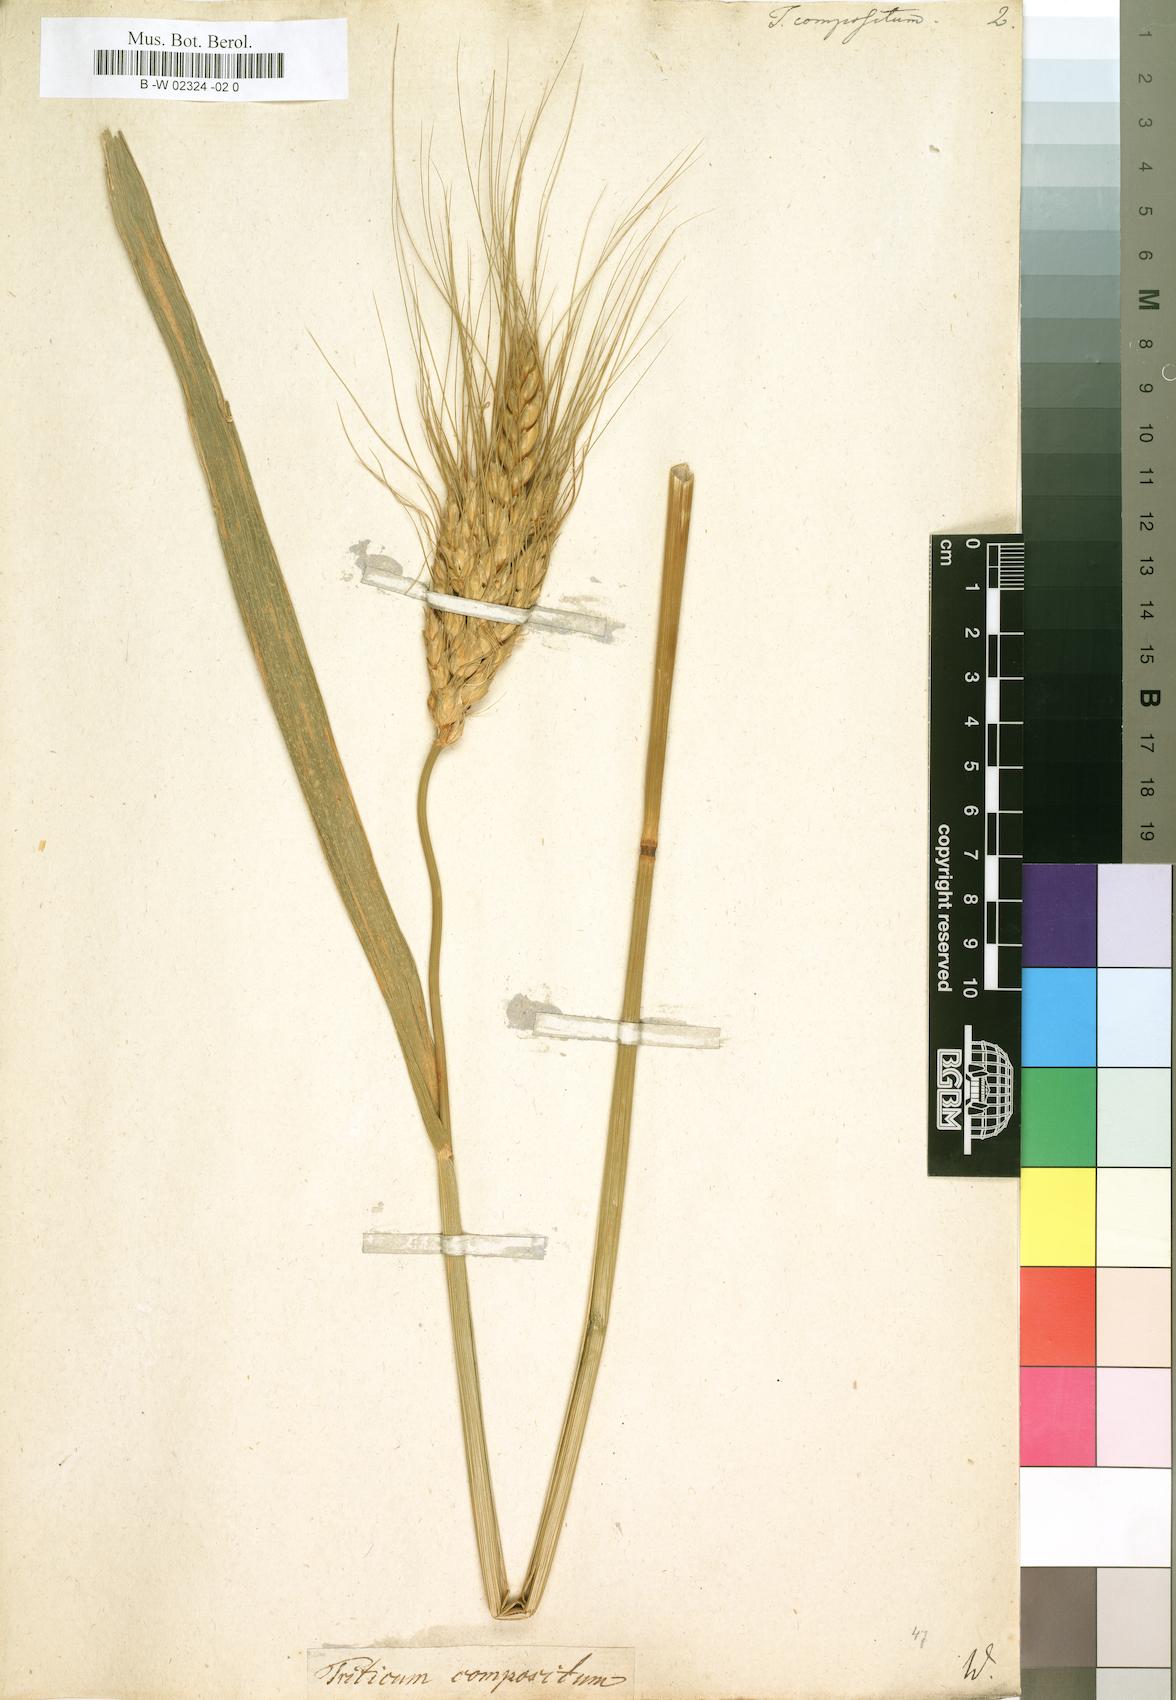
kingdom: Plantae
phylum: Tracheophyta
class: Liliopsida
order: Poales
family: Poaceae
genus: Triticum
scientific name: Triticum turgidum
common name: Rivet wheat
